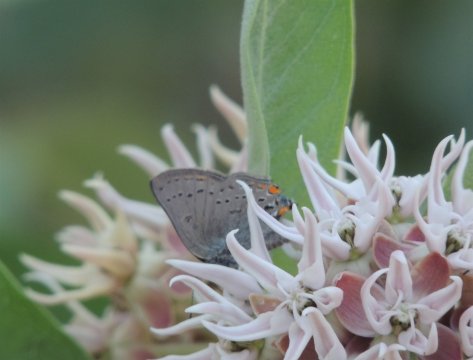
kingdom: Animalia
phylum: Arthropoda
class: Insecta
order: Lepidoptera
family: Lycaenidae
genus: Strymon
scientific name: Strymon sylvinus
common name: Sylvan Hairstreak
